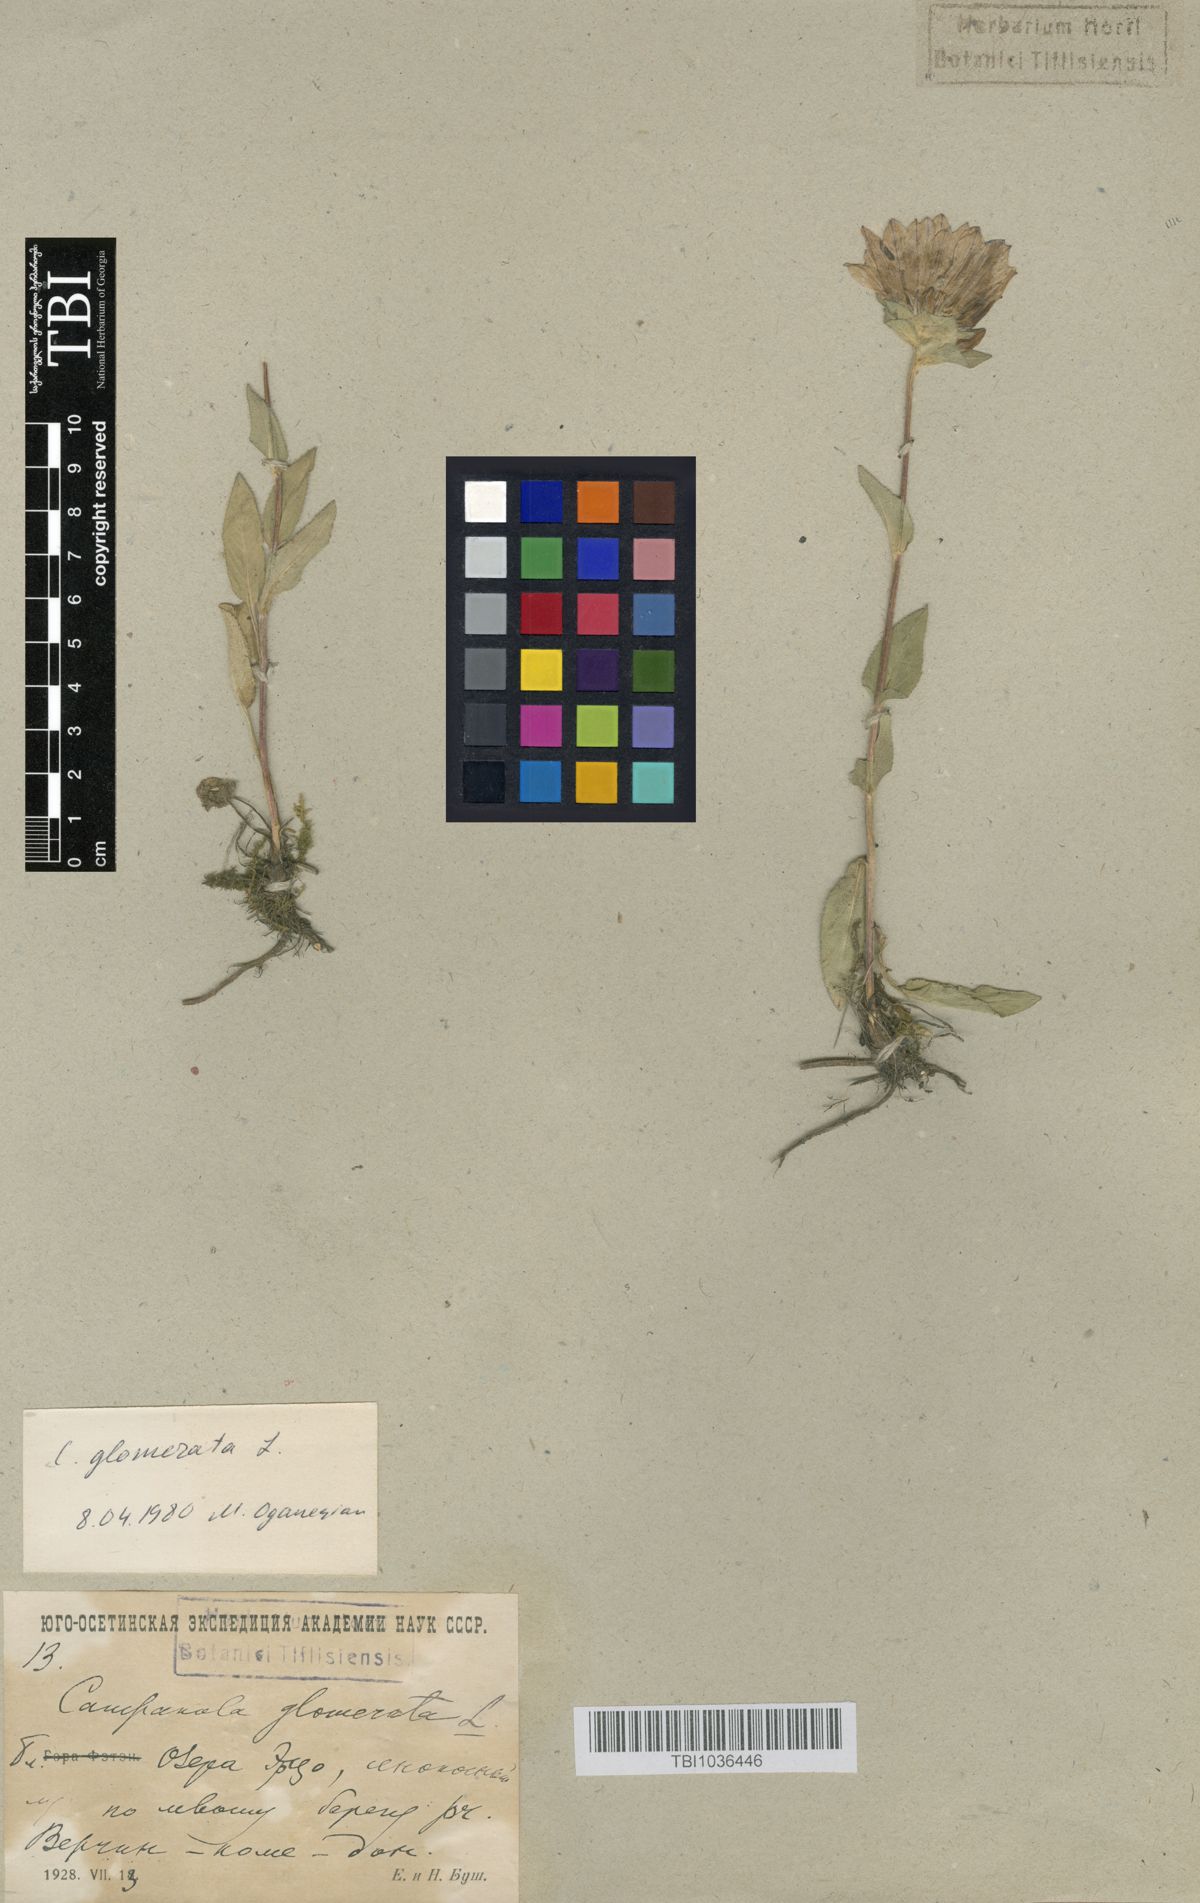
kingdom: Plantae
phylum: Tracheophyta
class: Magnoliopsida
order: Asterales
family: Campanulaceae
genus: Campanula
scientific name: Campanula glomerata
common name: Clustered bellflower
